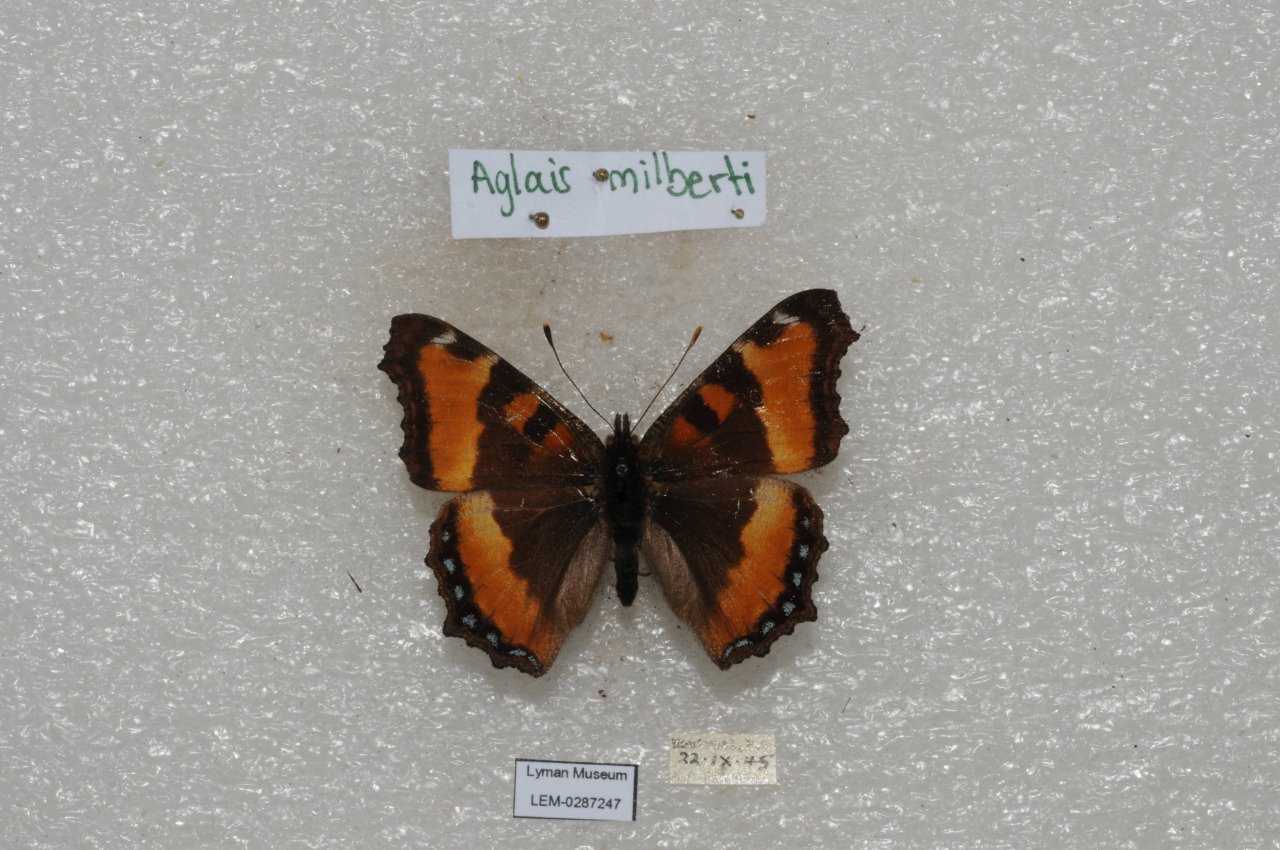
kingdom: Animalia
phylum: Arthropoda
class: Insecta
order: Lepidoptera
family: Nymphalidae
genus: Aglais
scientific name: Aglais milberti
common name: Milbert's Tortoiseshell
